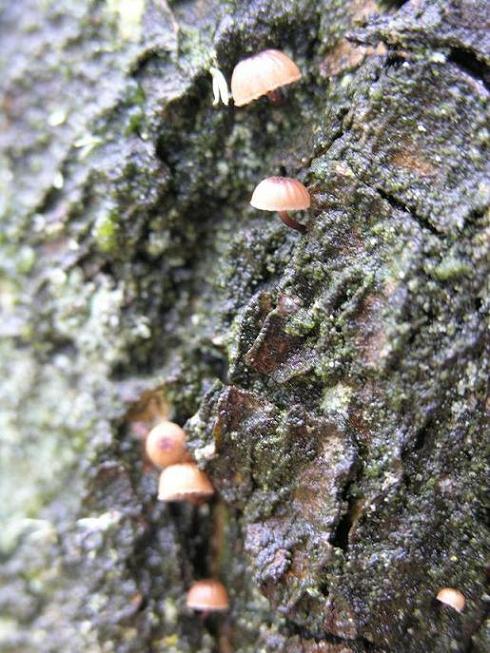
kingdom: Fungi
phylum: Basidiomycota
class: Agaricomycetes
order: Agaricales
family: Mycenaceae
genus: Mycena
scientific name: Mycena meliigena
